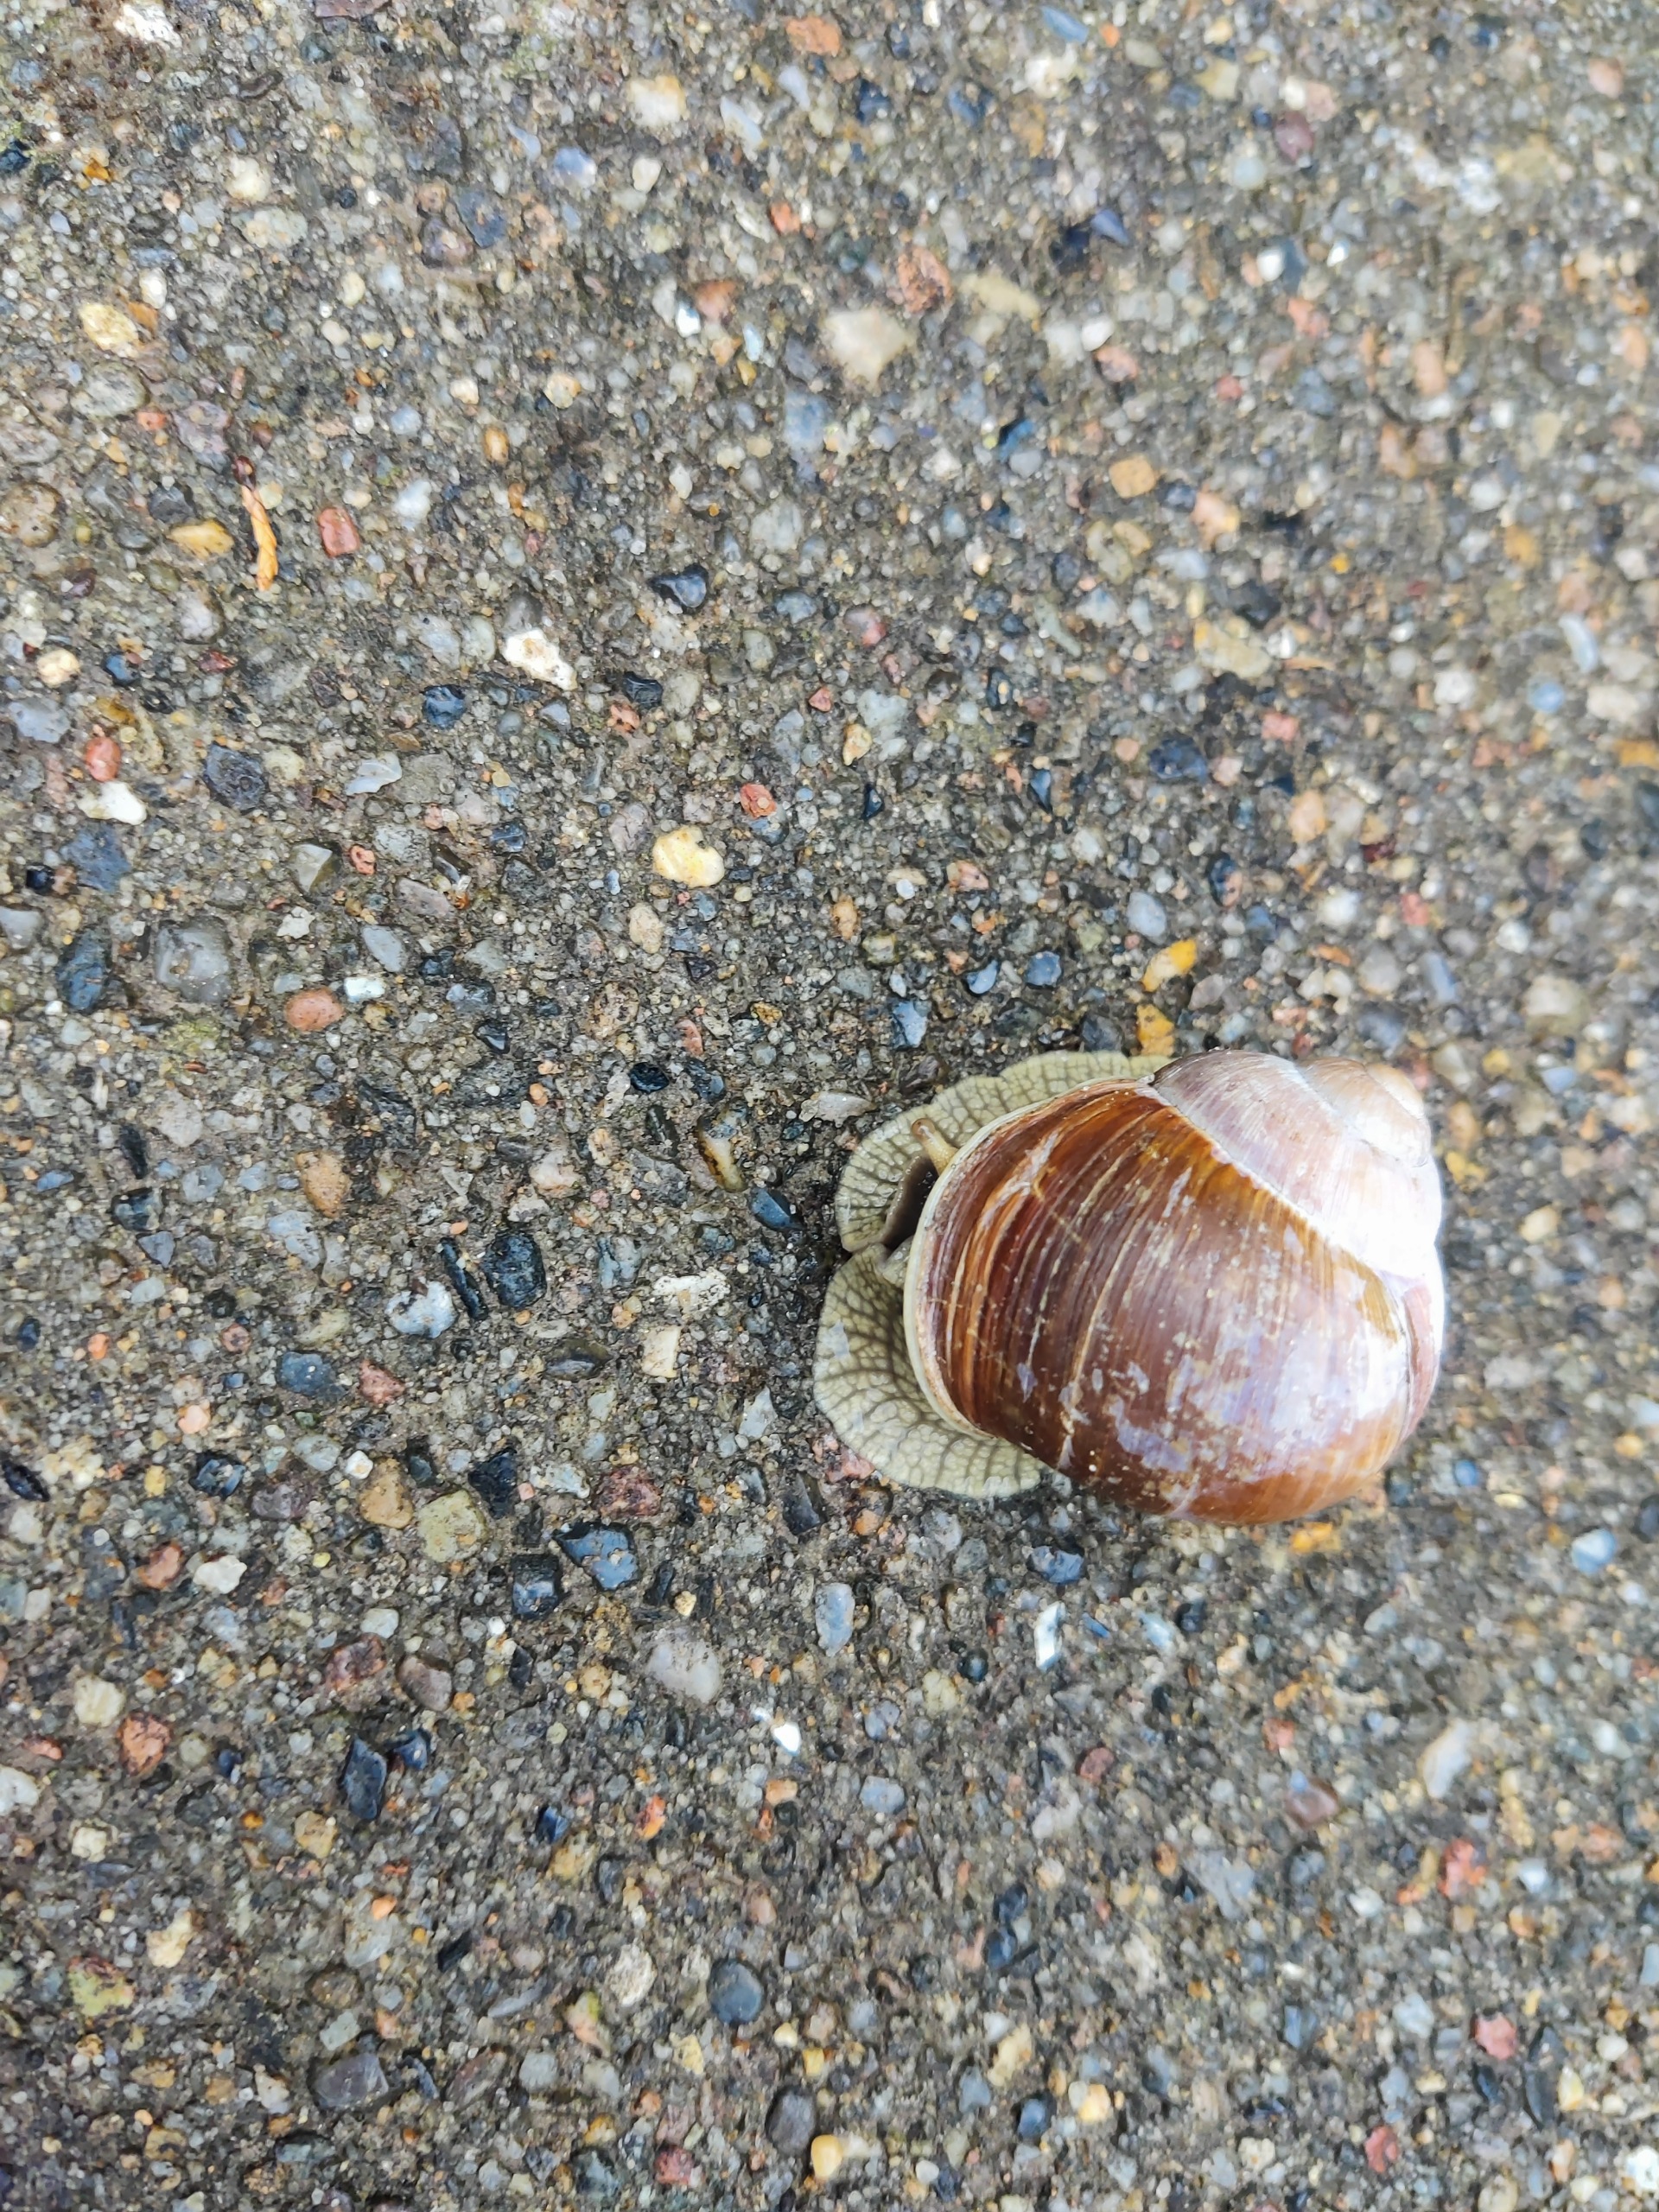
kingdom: Animalia
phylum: Mollusca
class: Gastropoda
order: Stylommatophora
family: Helicidae
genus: Helix
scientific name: Helix pomatia
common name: Vinbjergsnegl
